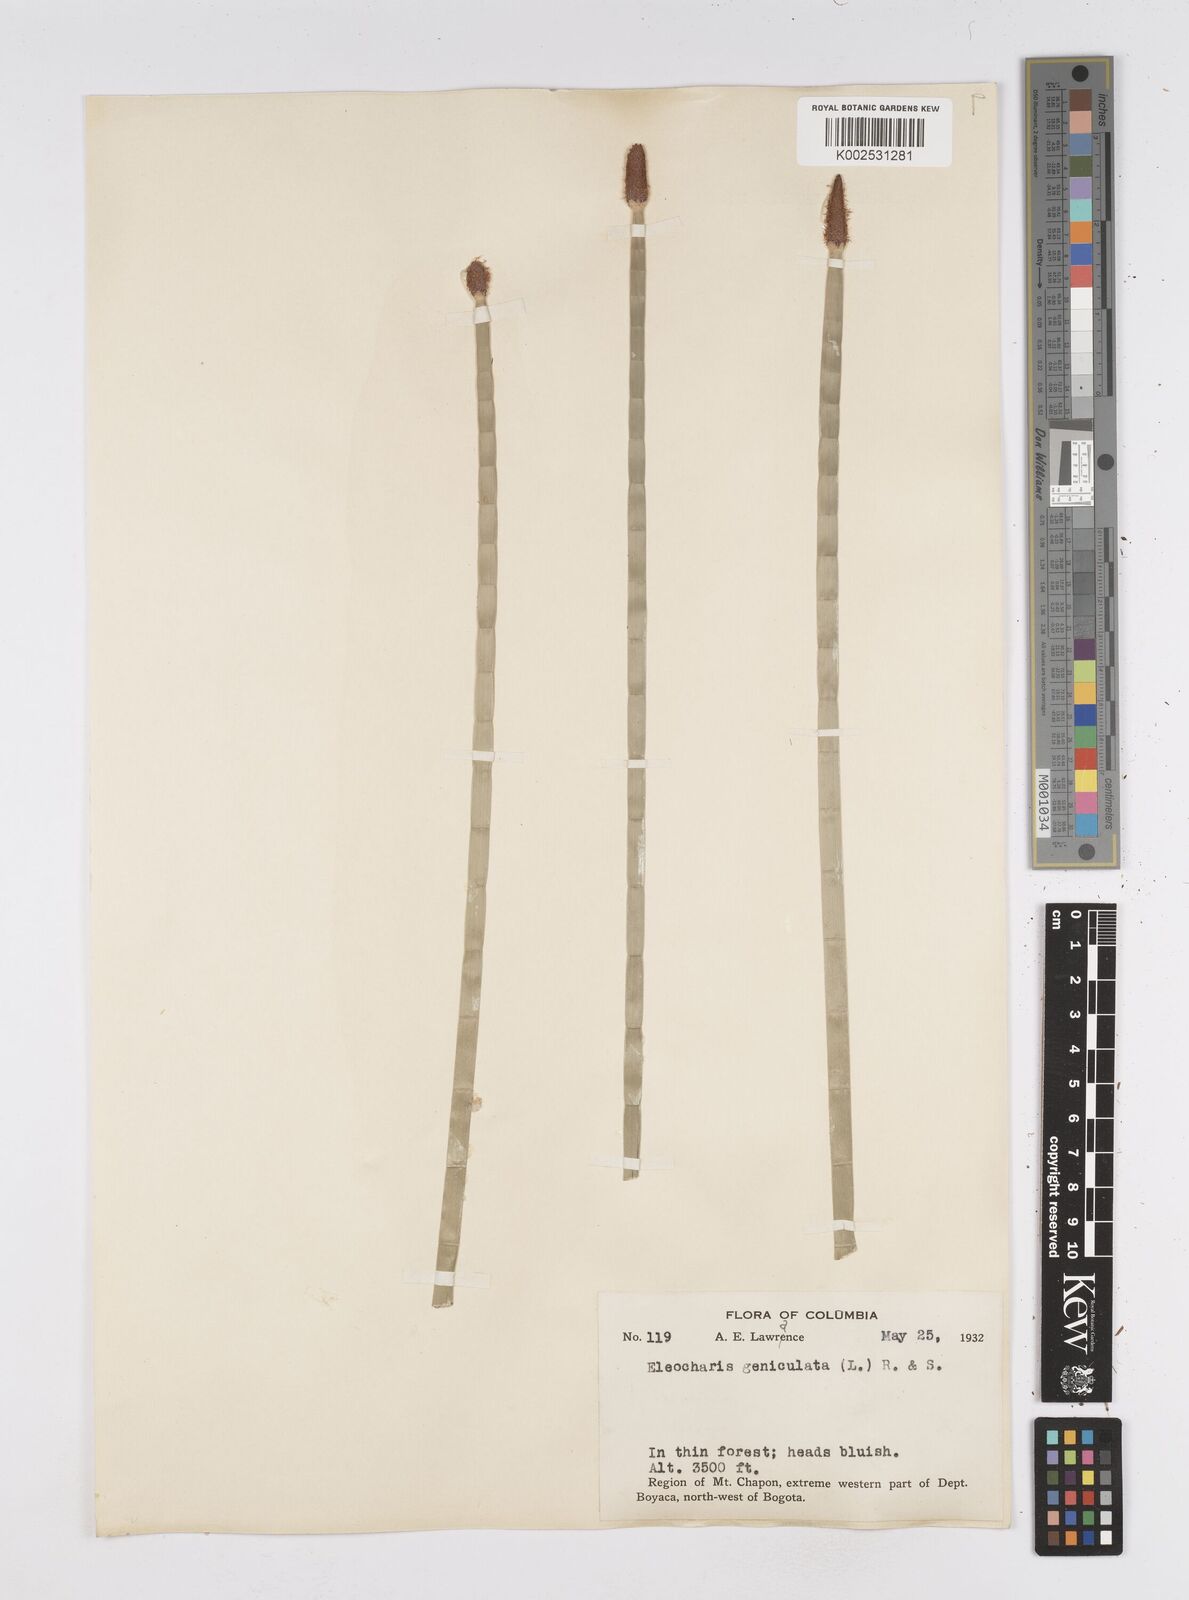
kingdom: Plantae
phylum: Tracheophyta
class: Liliopsida
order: Poales
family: Cyperaceae
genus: Eleocharis
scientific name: Eleocharis elegans
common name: Elegant spike-rush
